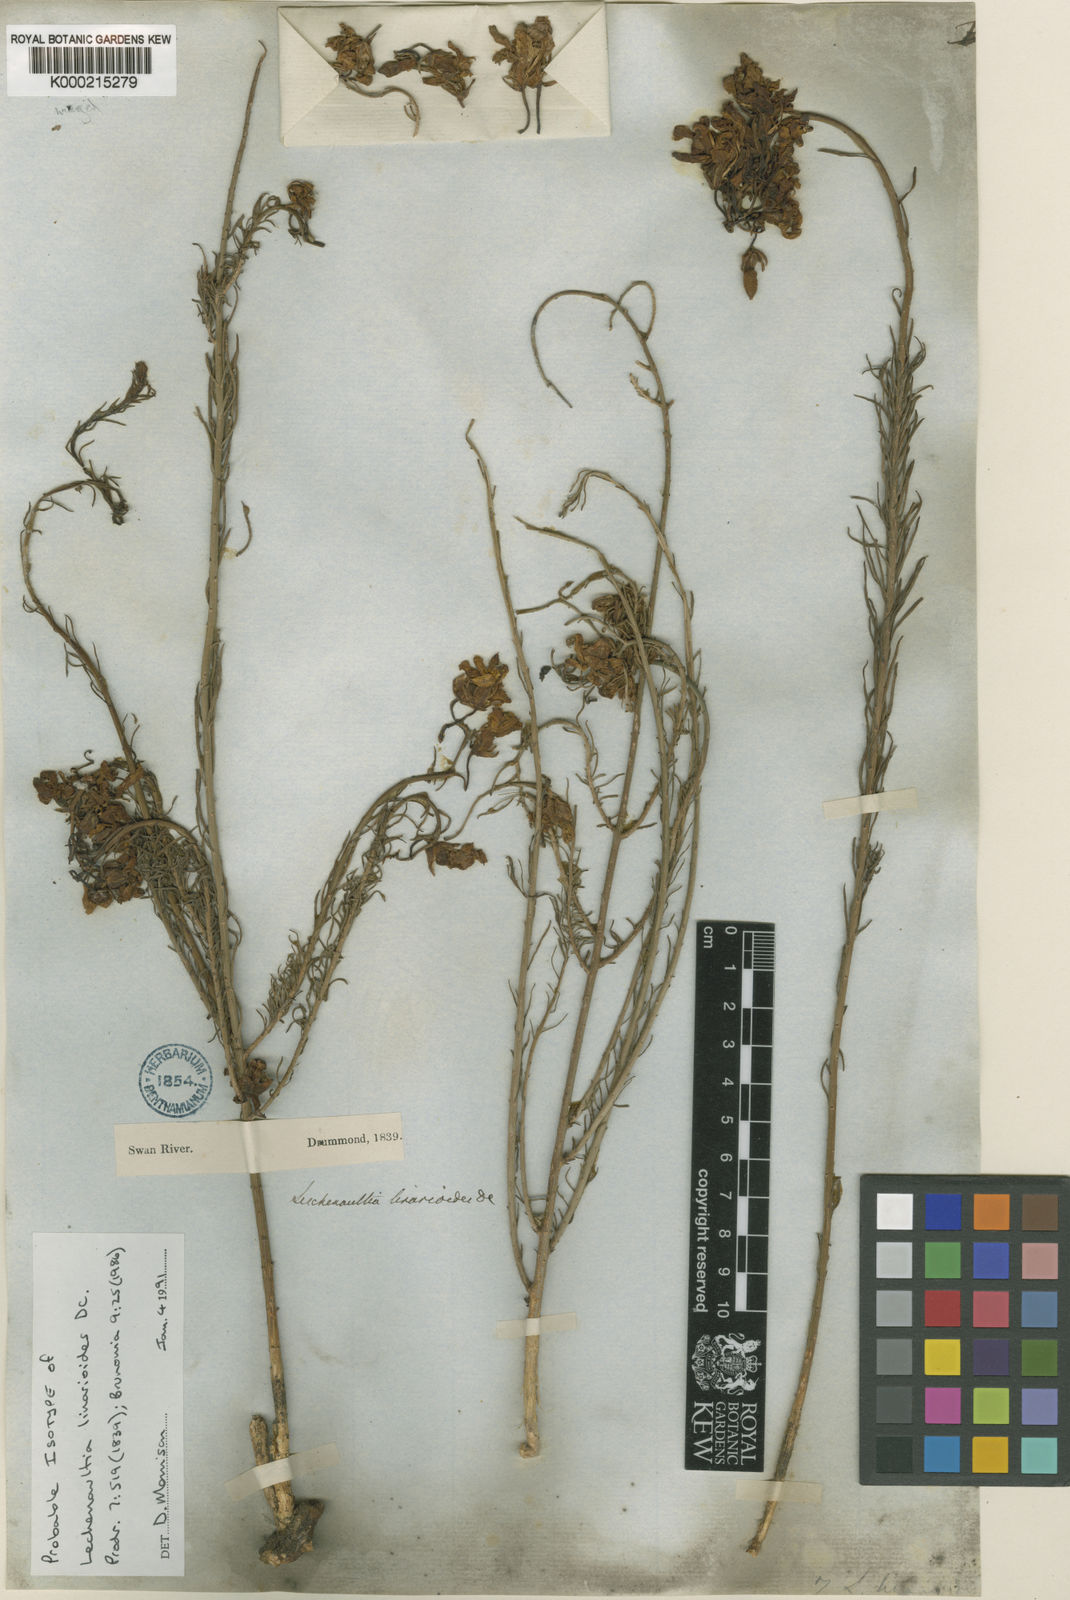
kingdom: Plantae
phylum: Tracheophyta
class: Magnoliopsida
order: Asterales
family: Goodeniaceae
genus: Leschenaultia
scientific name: Leschenaultia
